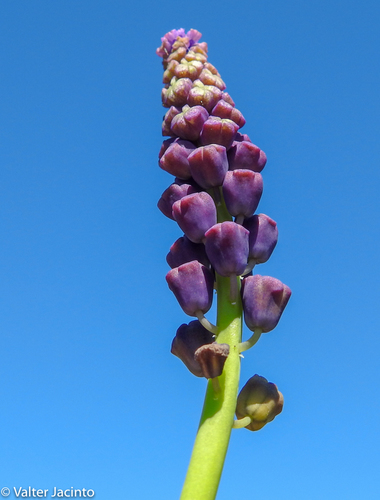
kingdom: Plantae
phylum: Tracheophyta
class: Liliopsida
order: Asparagales
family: Asparagaceae
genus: Muscari
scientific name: Muscari comosum
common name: Tassel hyacinth
